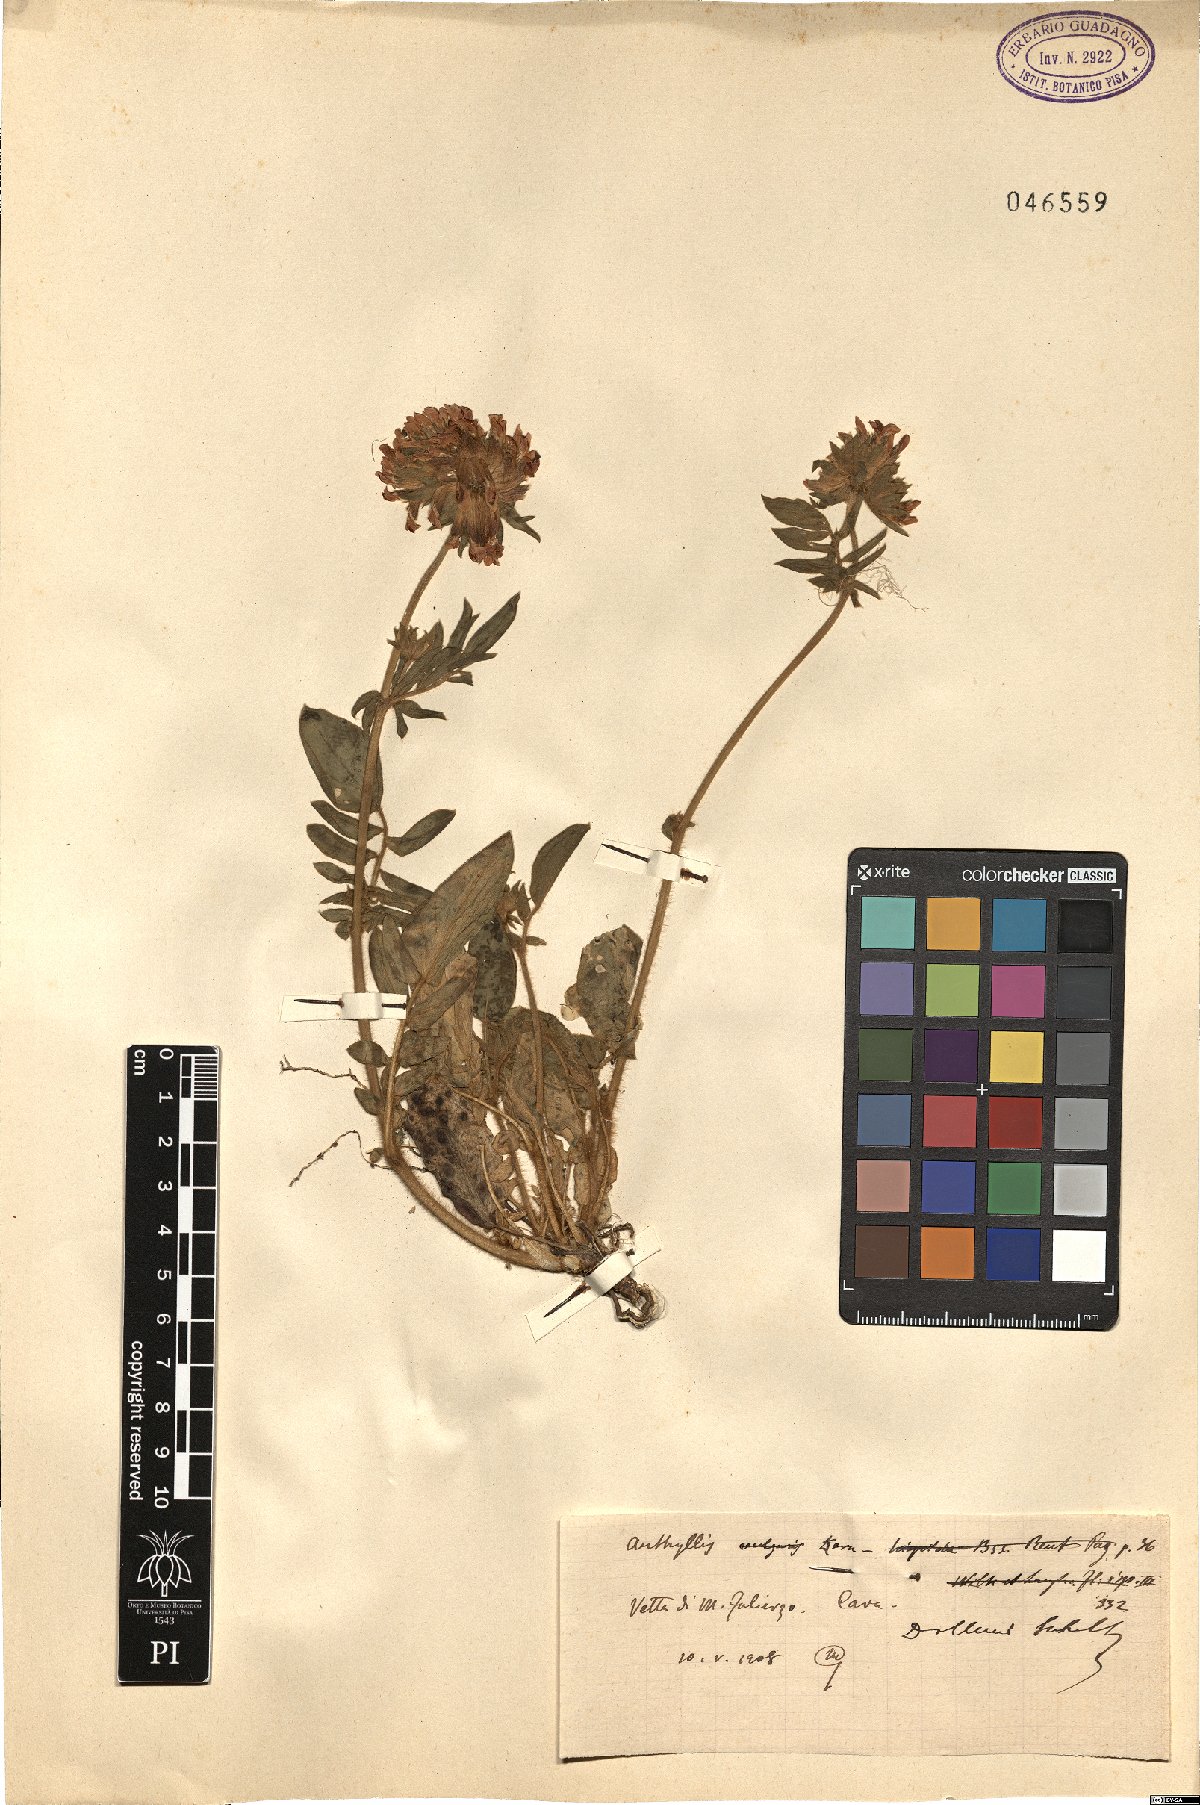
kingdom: Plantae
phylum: Tracheophyta
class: Magnoliopsida
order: Fabales
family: Fabaceae
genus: Anthyllis
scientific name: Anthyllis vulneraria
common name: Kidney vetch
